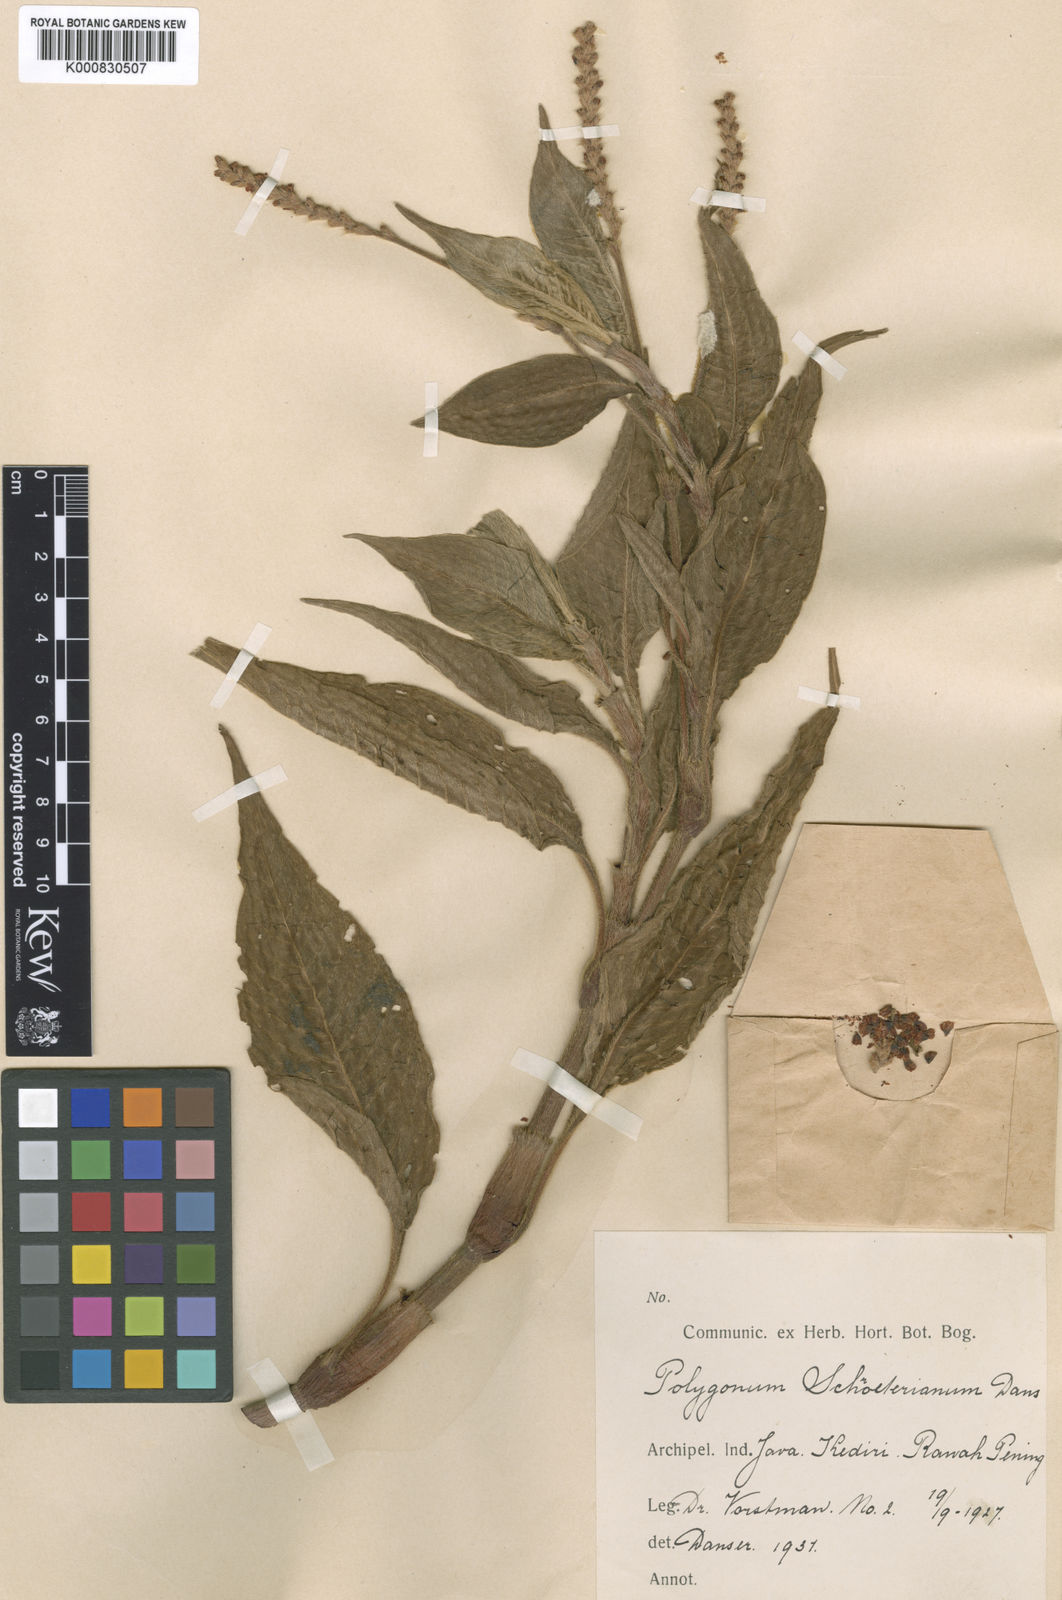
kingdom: Plantae
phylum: Tracheophyta
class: Magnoliopsida
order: Caryophyllales
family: Polygonaceae
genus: Persicaria
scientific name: Persicaria orientalis
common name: Kiss-me-over-the-garden-gate
